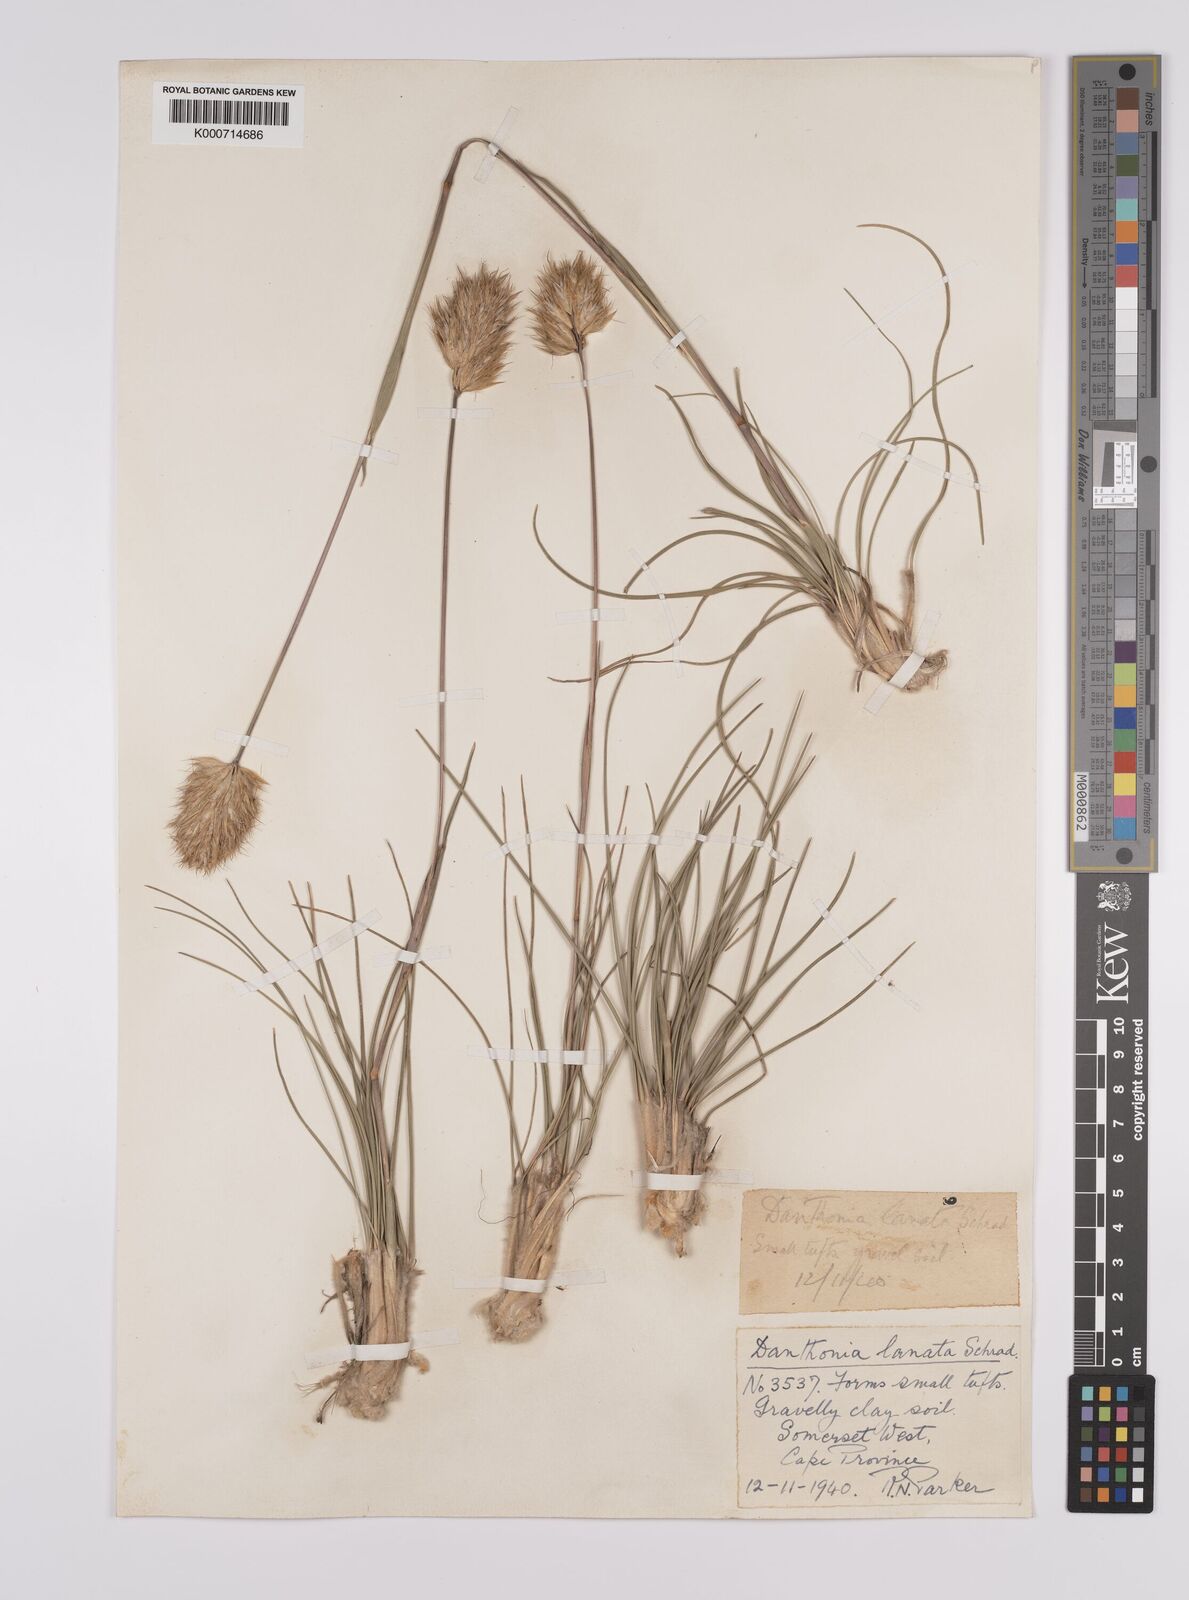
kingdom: Plantae
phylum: Tracheophyta
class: Liliopsida
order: Poales
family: Poaceae
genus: Rytidosperma
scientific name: Rytidosperma
